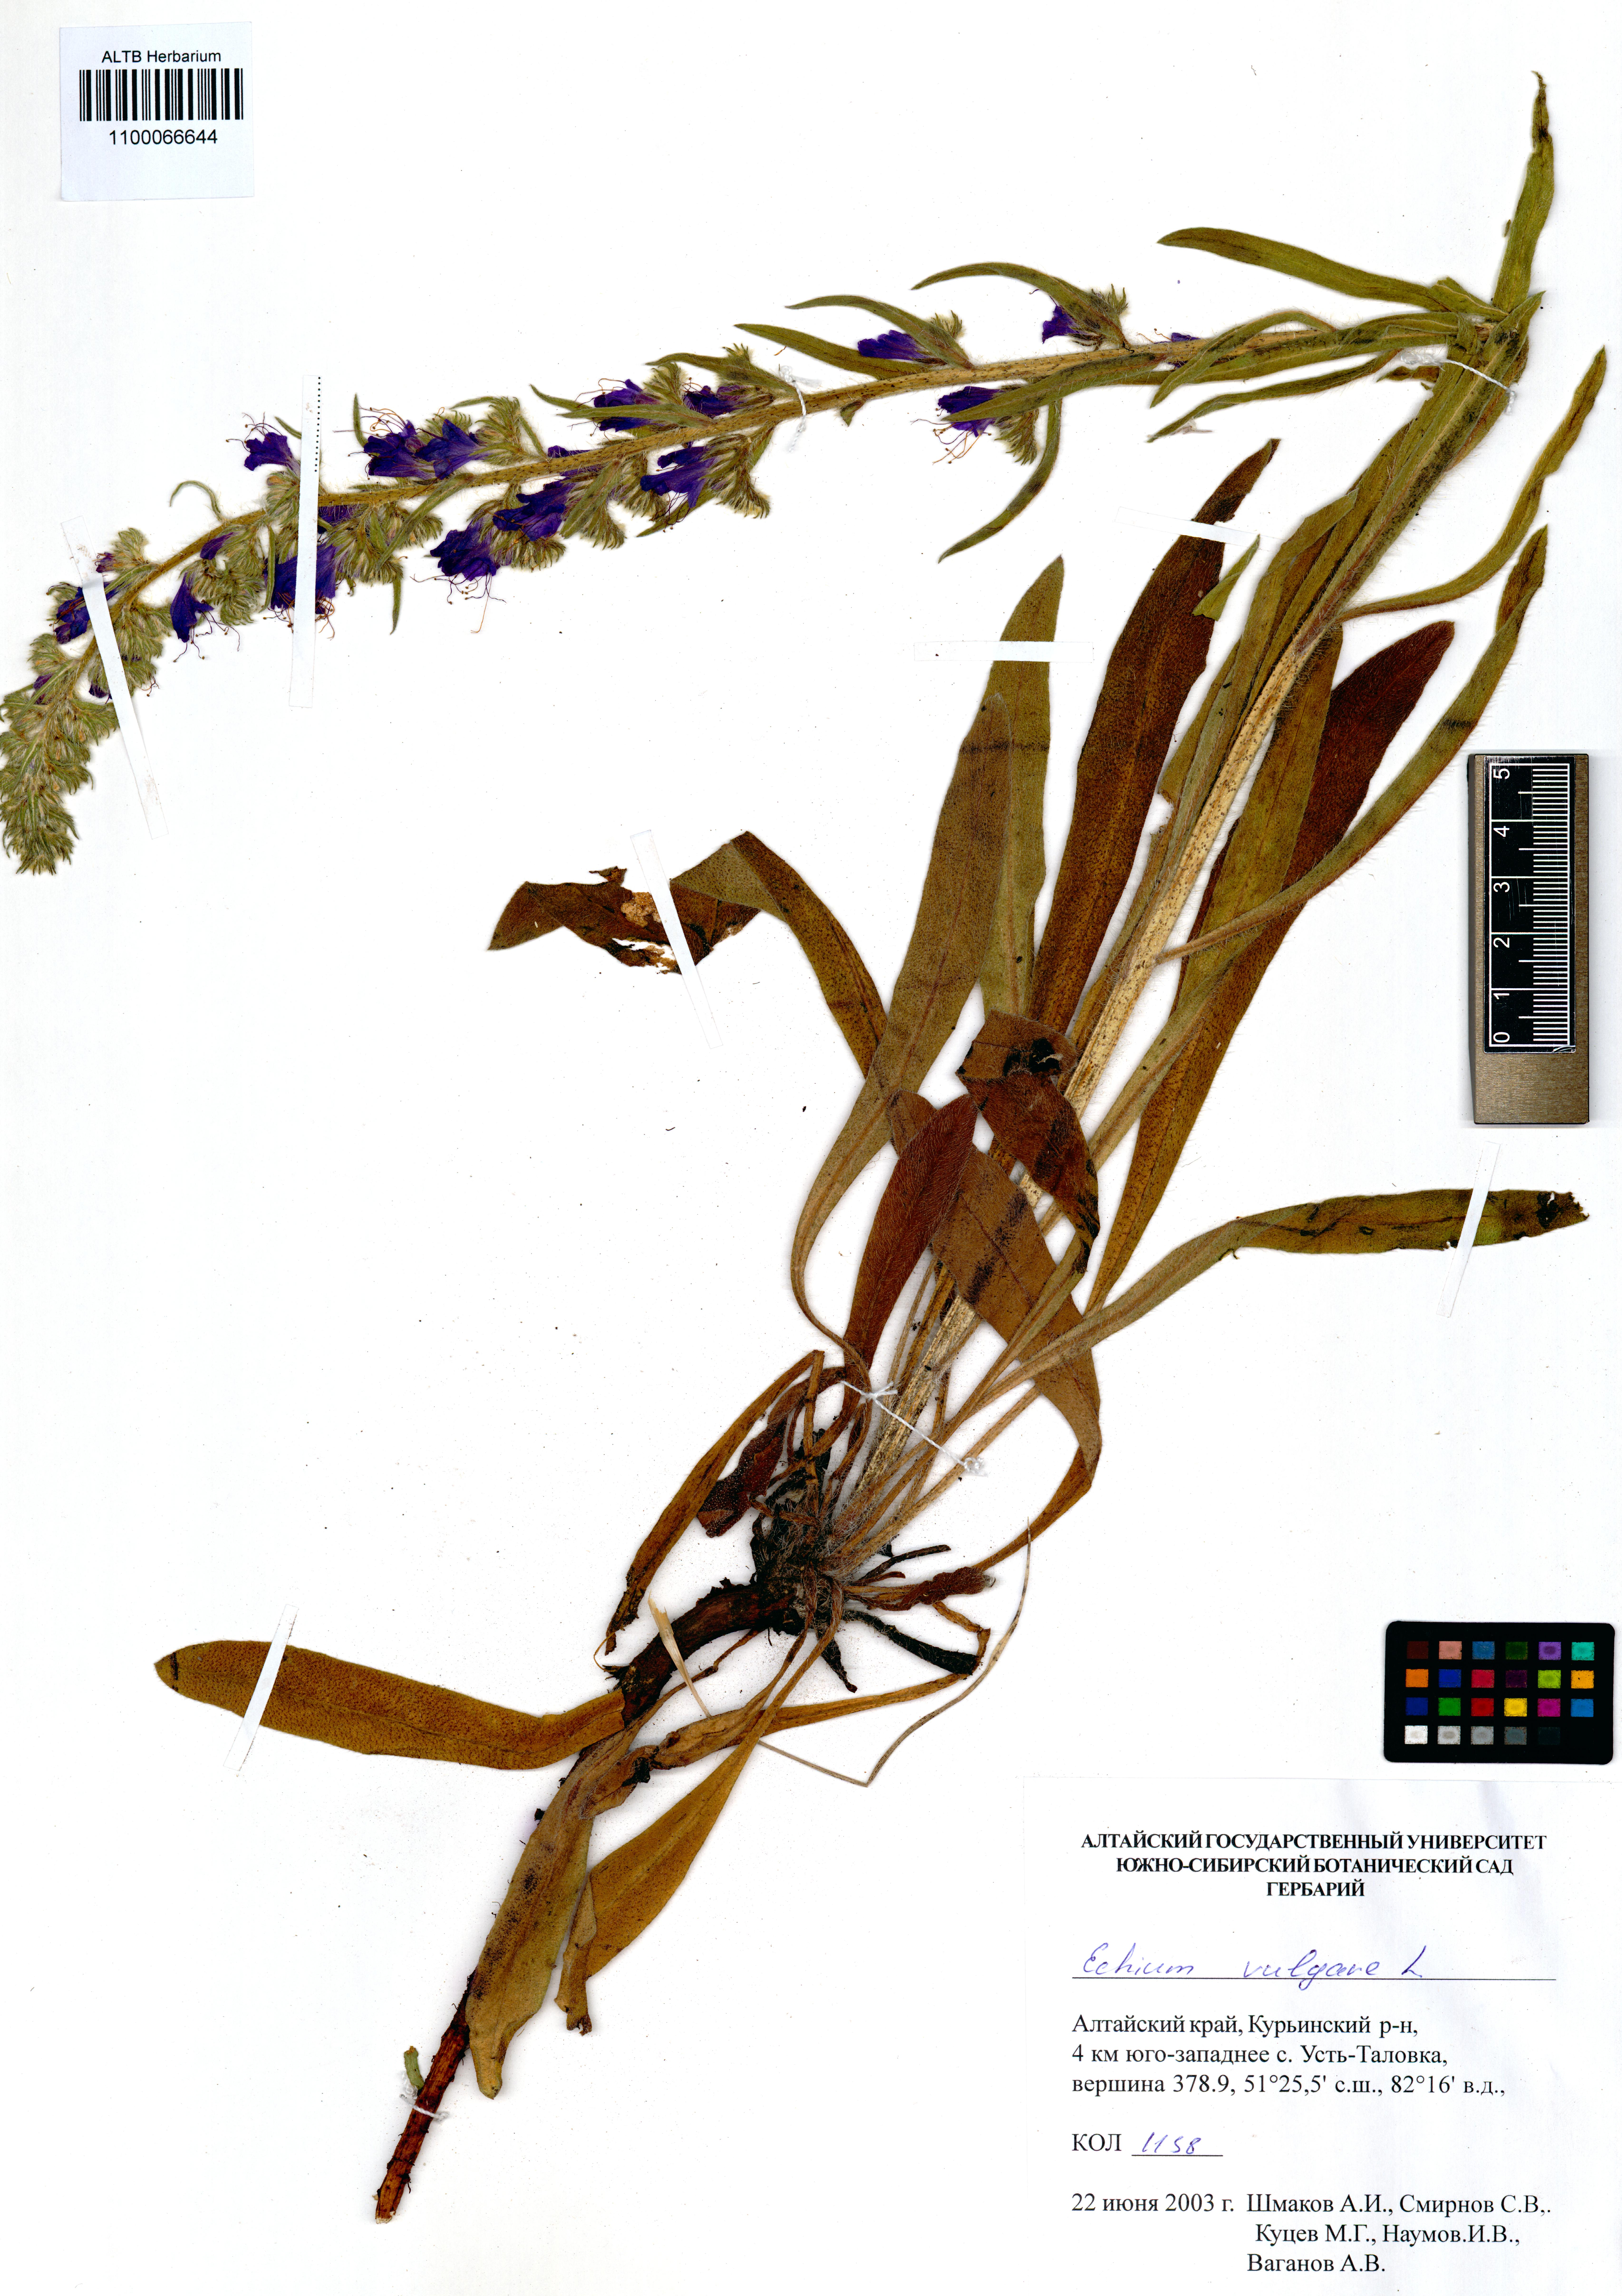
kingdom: Plantae
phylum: Tracheophyta
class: Magnoliopsida
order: Boraginales
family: Boraginaceae
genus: Echium
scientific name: Echium vulgare
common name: Common viper's bugloss
